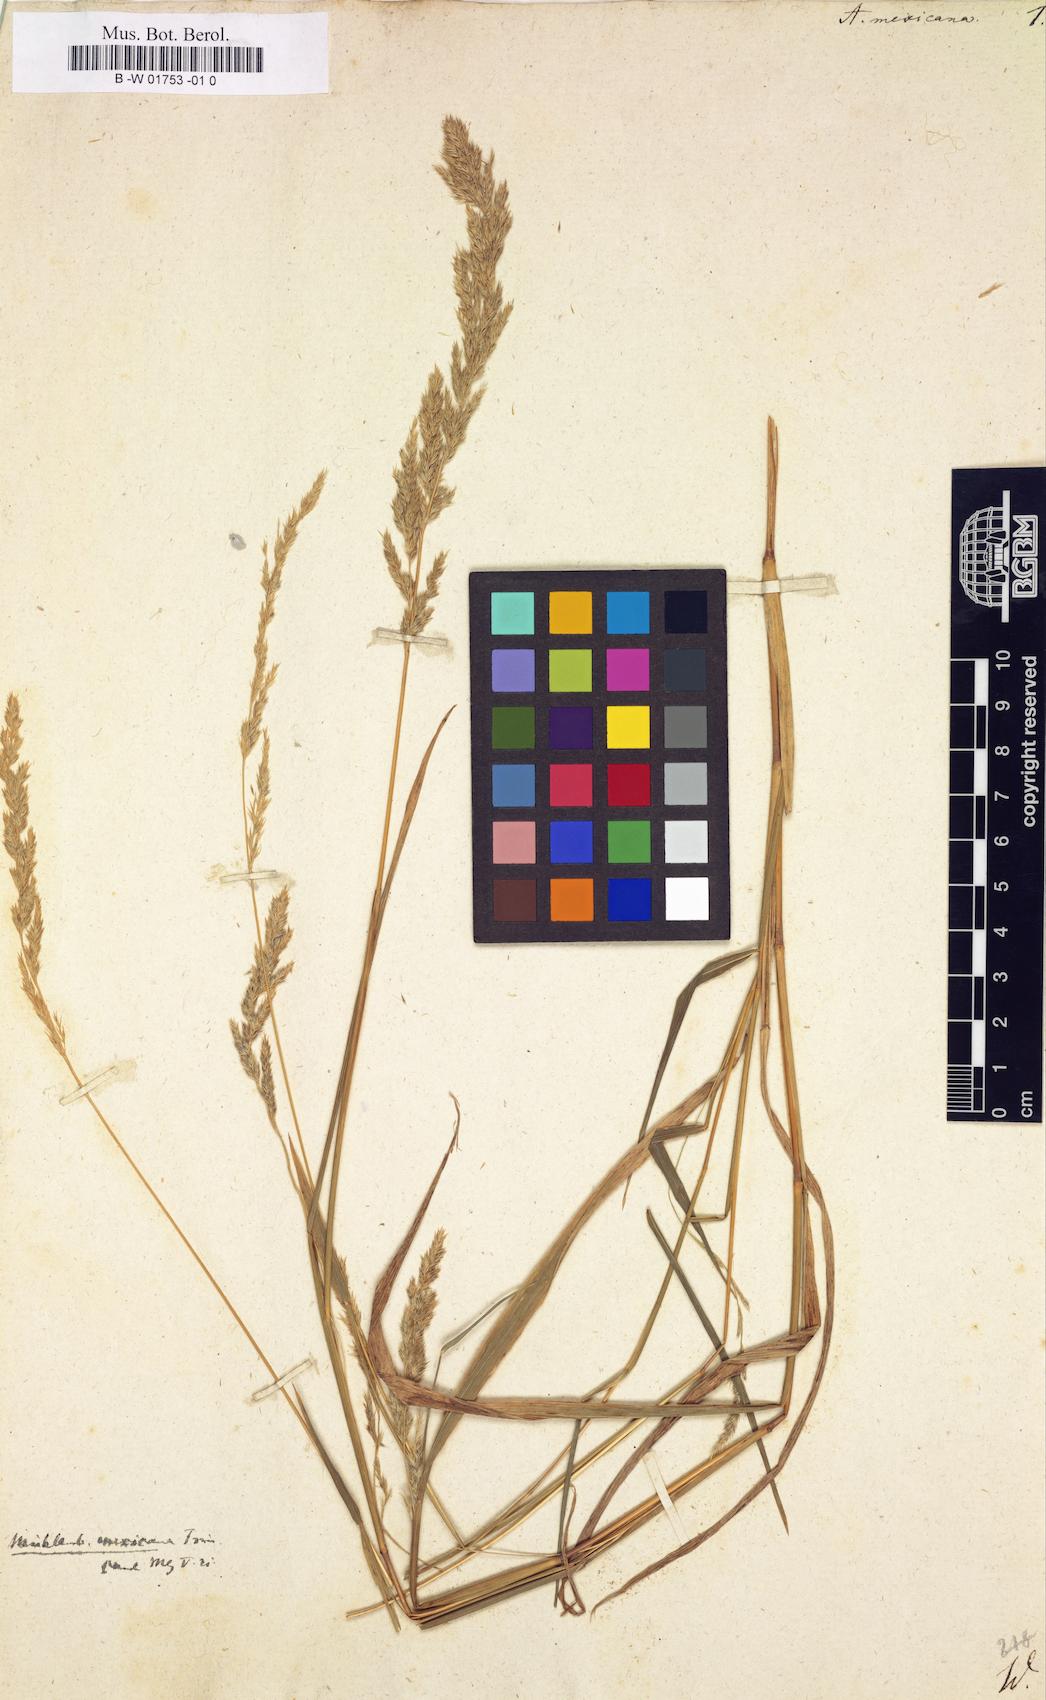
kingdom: Plantae
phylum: Tracheophyta
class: Liliopsida
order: Poales
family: Poaceae
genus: Agrostis
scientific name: Agrostis mexicana
